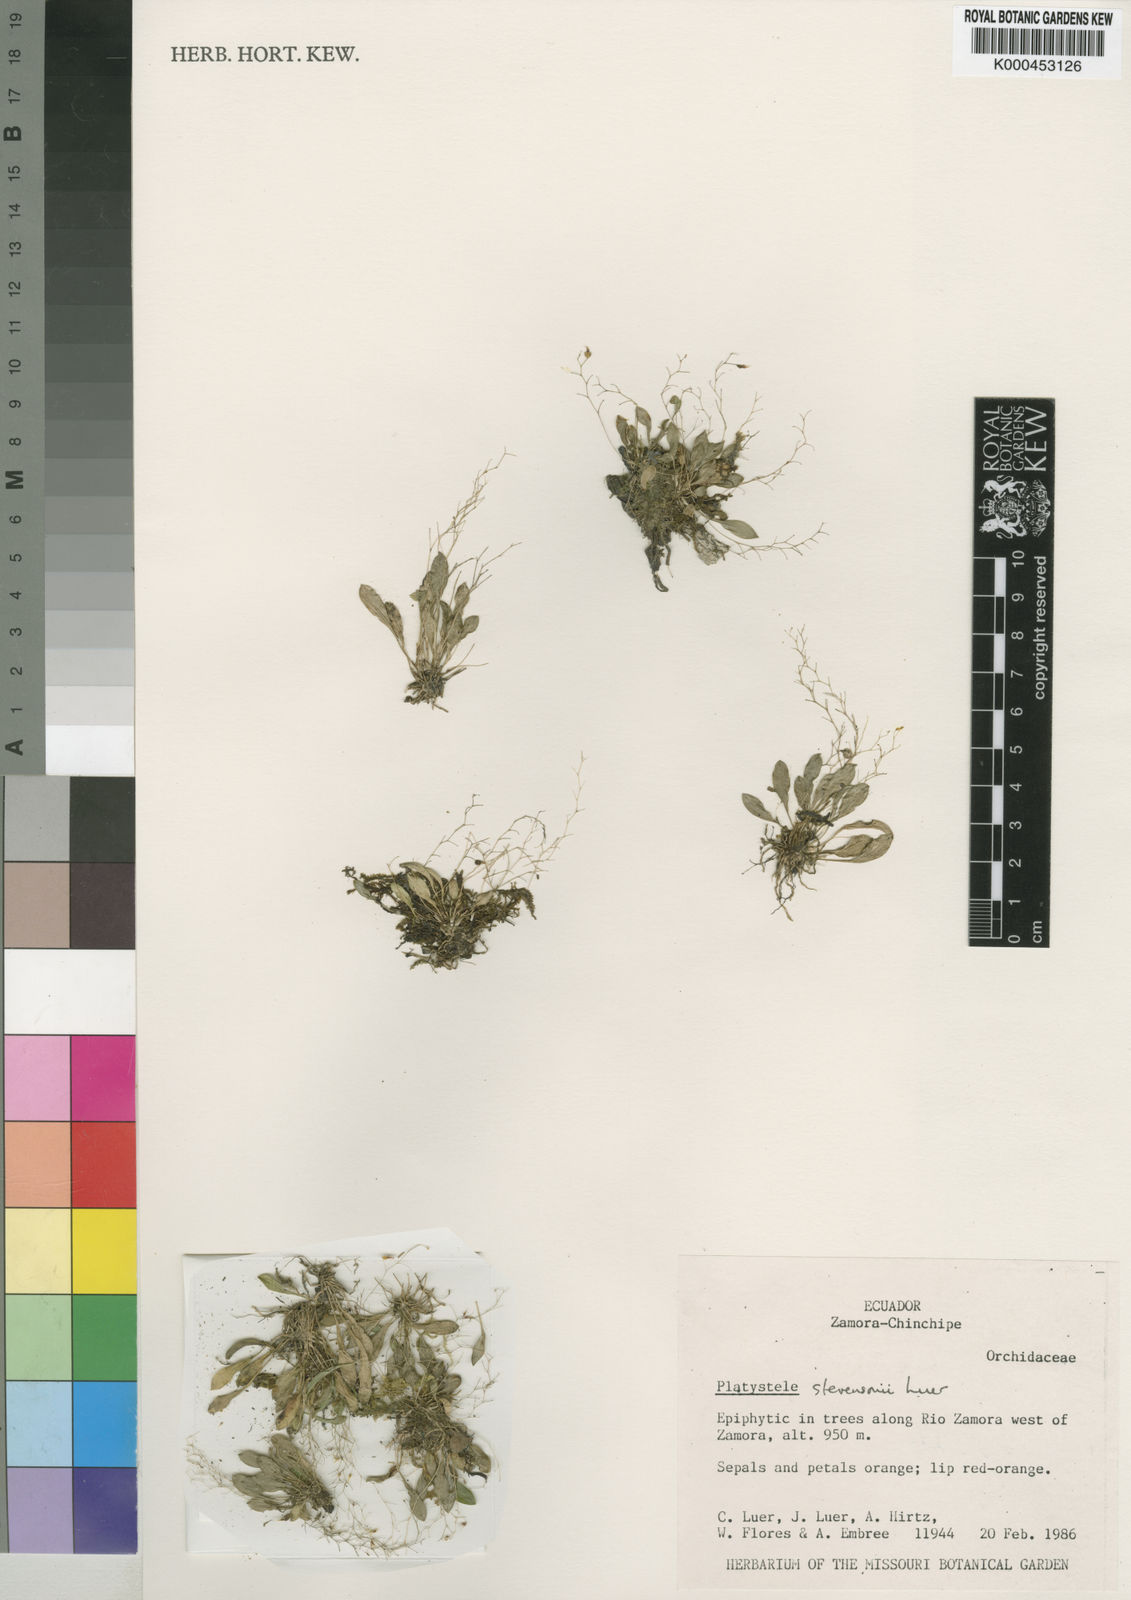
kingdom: Plantae
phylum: Tracheophyta
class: Liliopsida
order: Asparagales
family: Orchidaceae
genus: Platystele
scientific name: Platystele stevensonii
